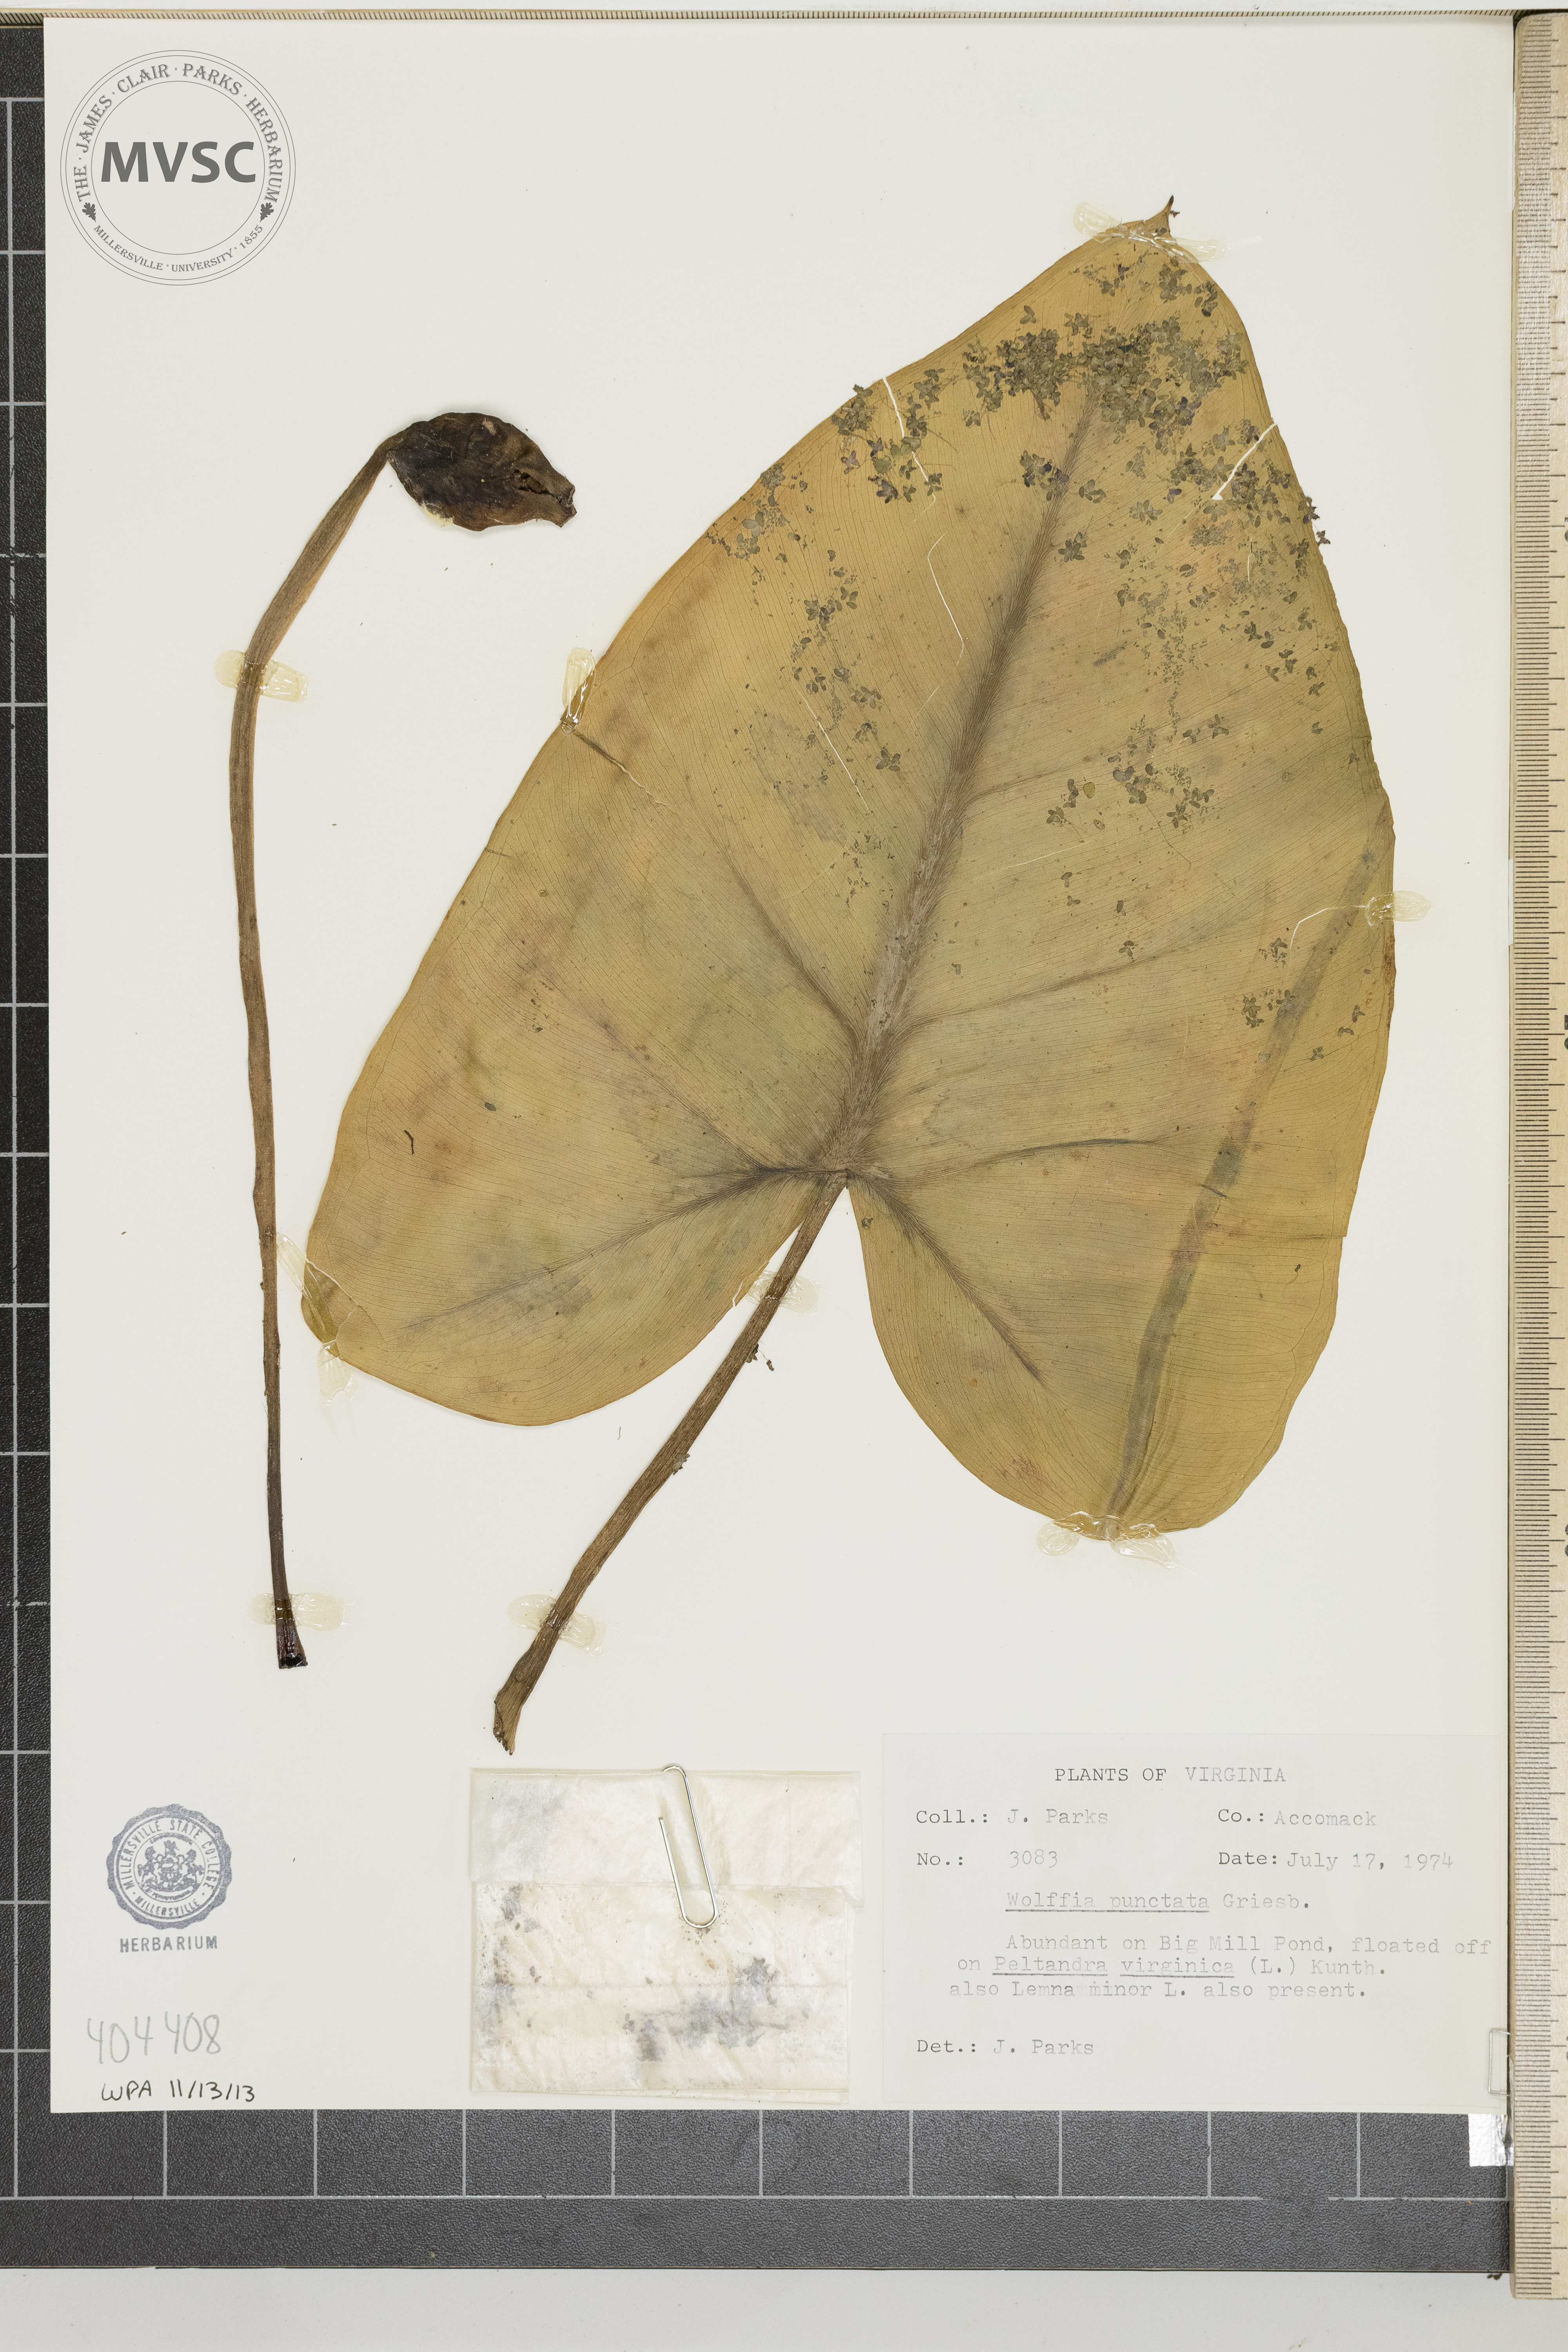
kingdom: Plantae
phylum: Tracheophyta
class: Liliopsida
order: Alismatales
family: Araceae
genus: Wolffia
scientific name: Wolffia brasiliensis
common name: Brazilian watermeal
